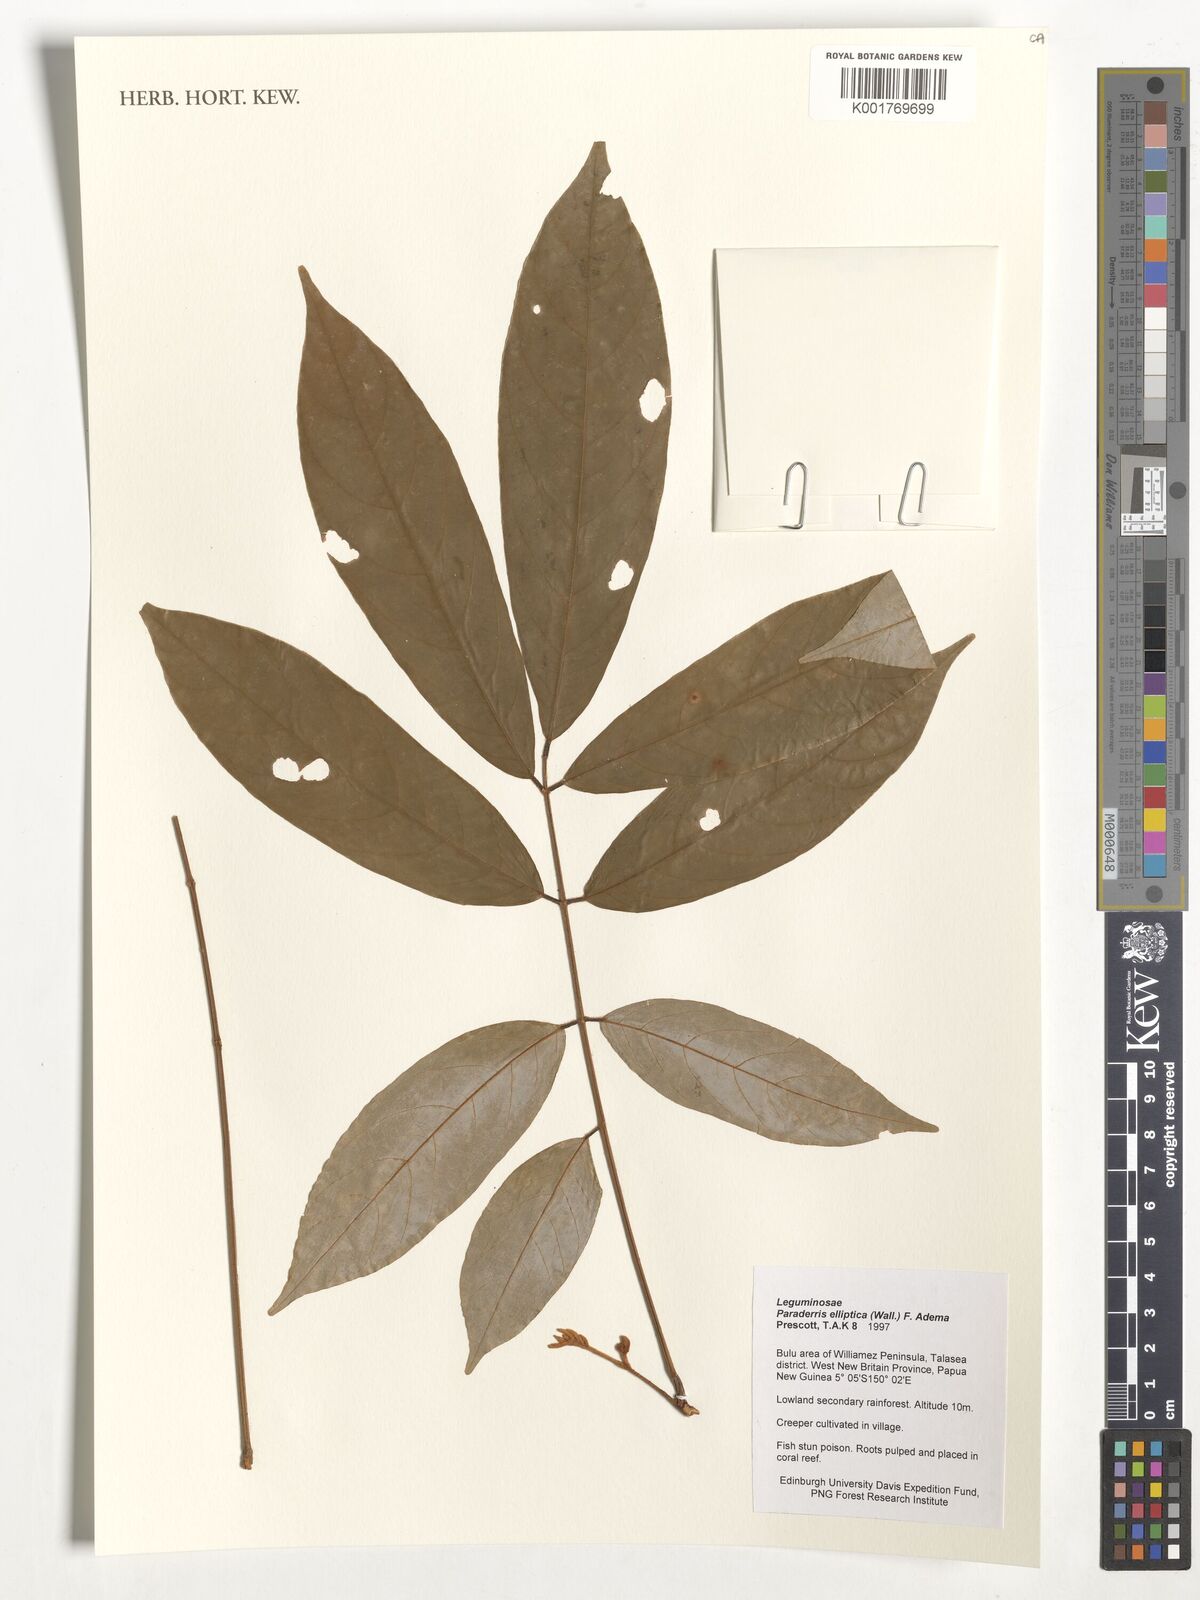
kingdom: Plantae
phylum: Tracheophyta
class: Magnoliopsida
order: Fabales
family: Fabaceae
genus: Derris
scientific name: Derris elliptica
